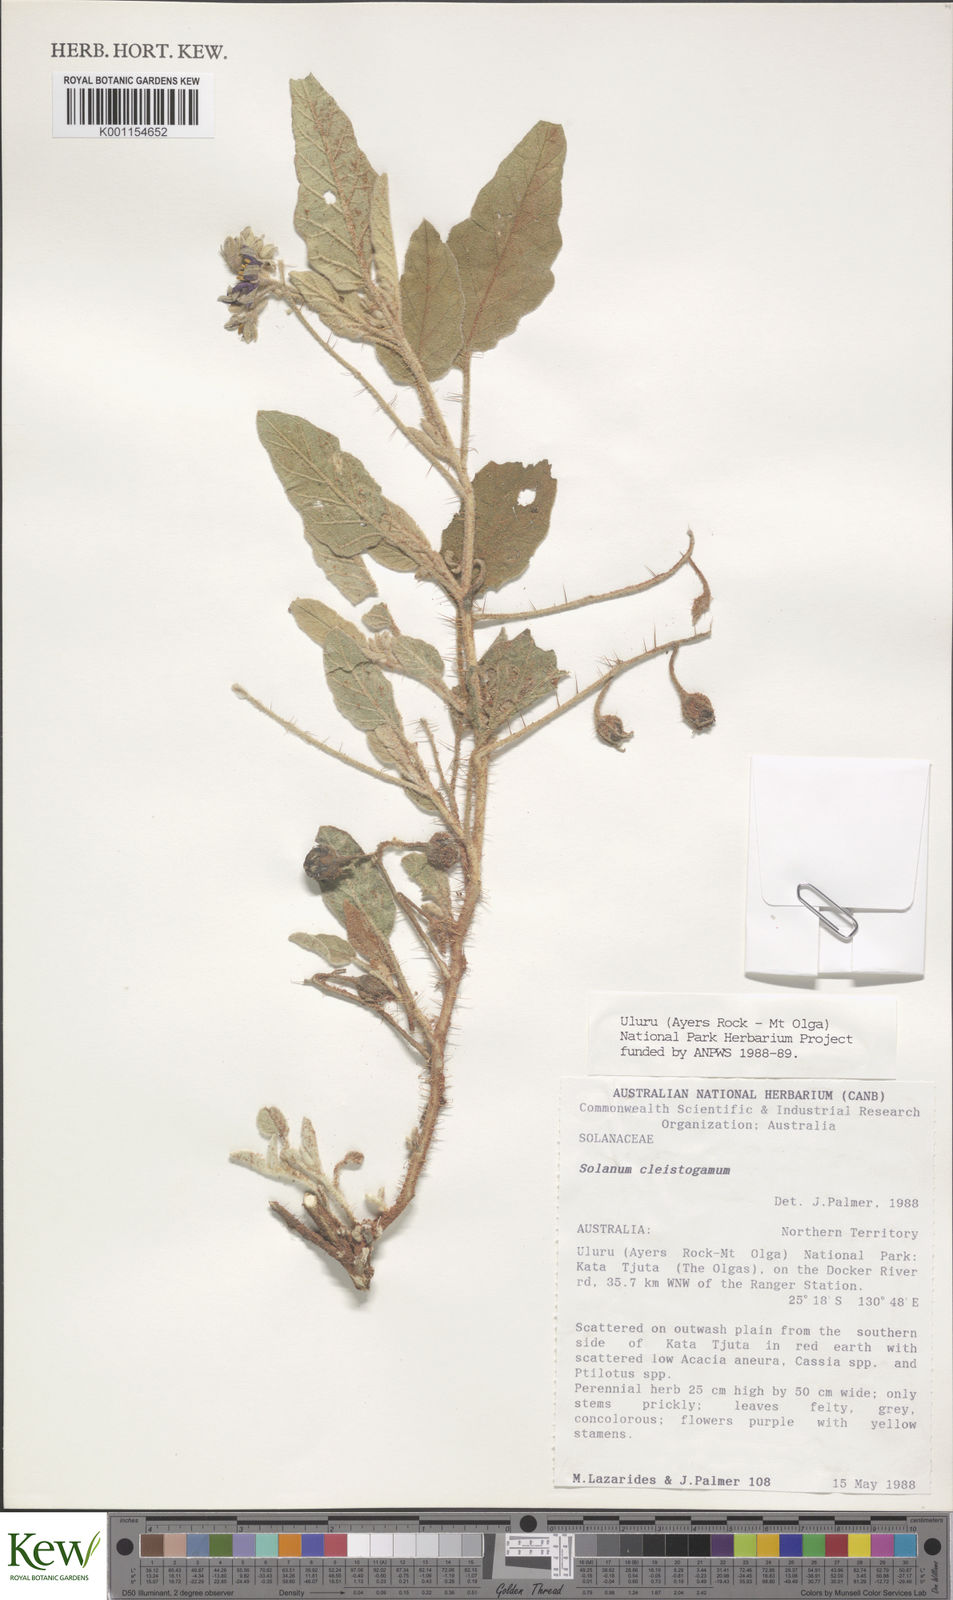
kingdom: Plantae
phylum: Tracheophyta
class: Magnoliopsida
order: Solanales
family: Solanaceae
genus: Solanum
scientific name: Solanum cleistogamum
